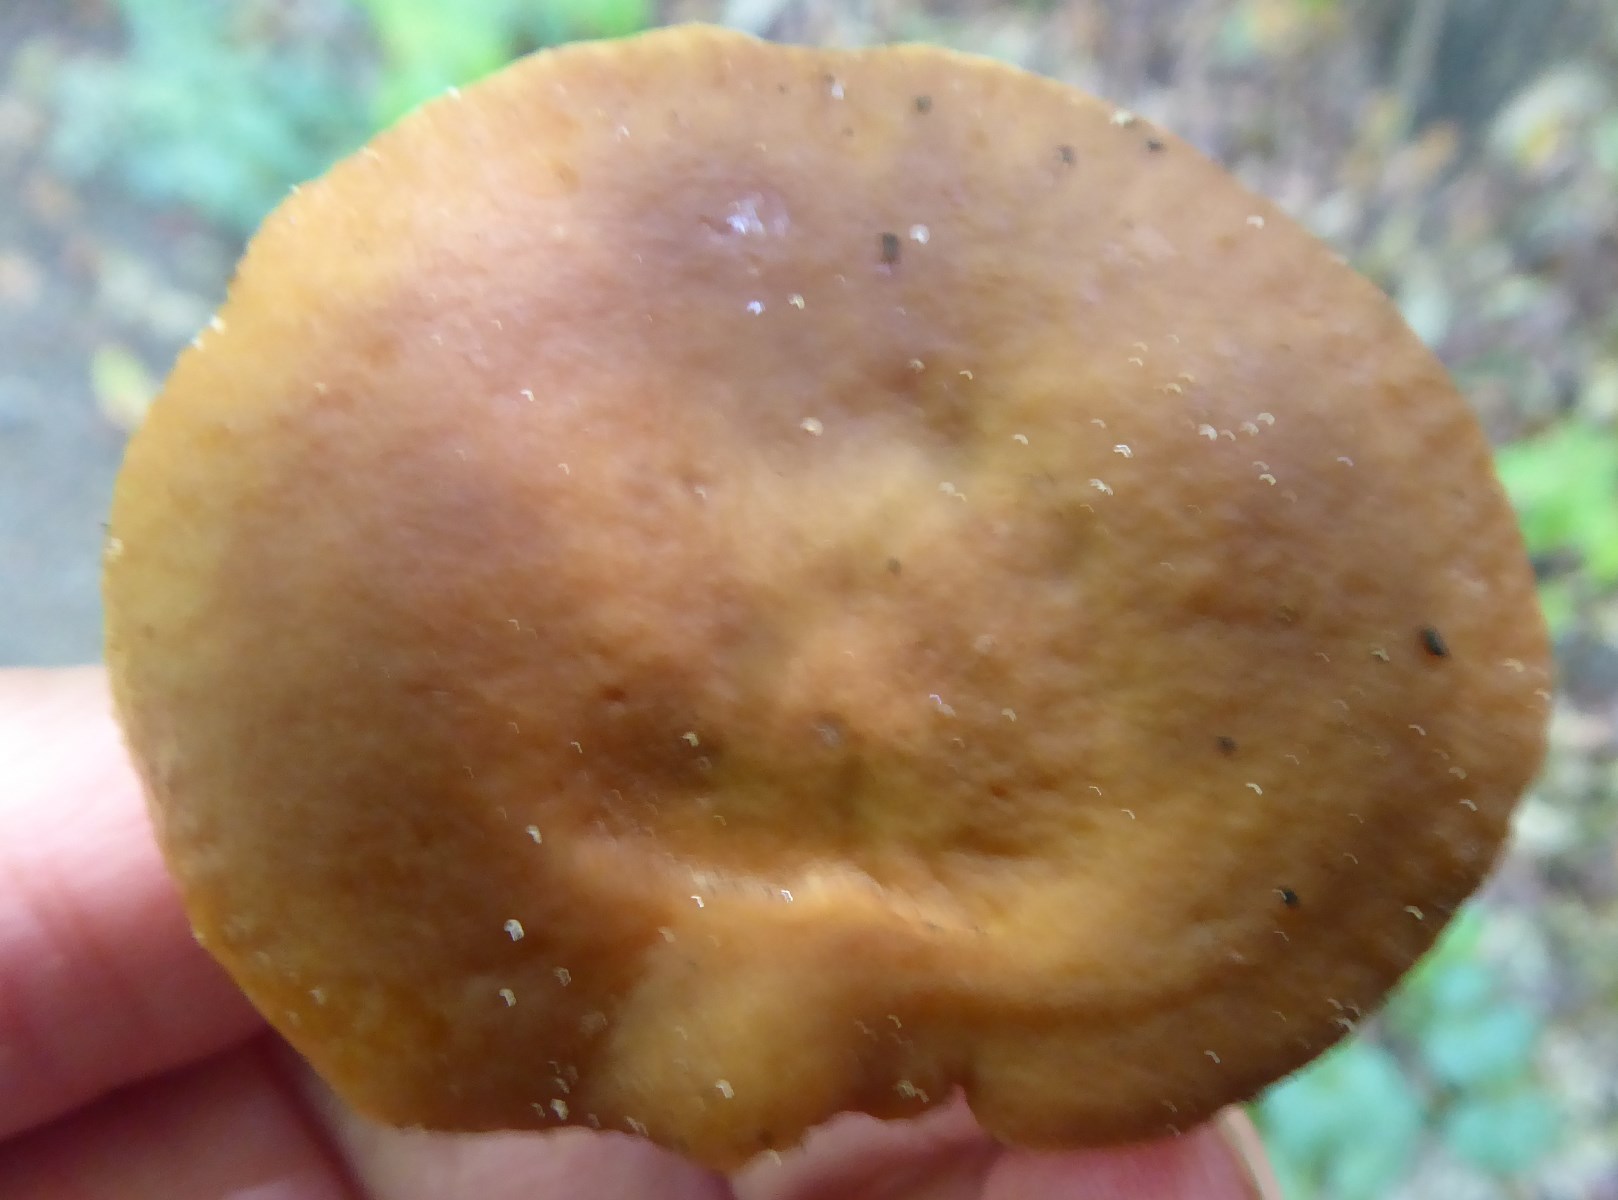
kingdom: Fungi
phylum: Basidiomycota
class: Agaricomycetes
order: Russulales
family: Russulaceae
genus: Lactarius
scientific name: Lactarius subdulcis
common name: sødlig mælkehat
